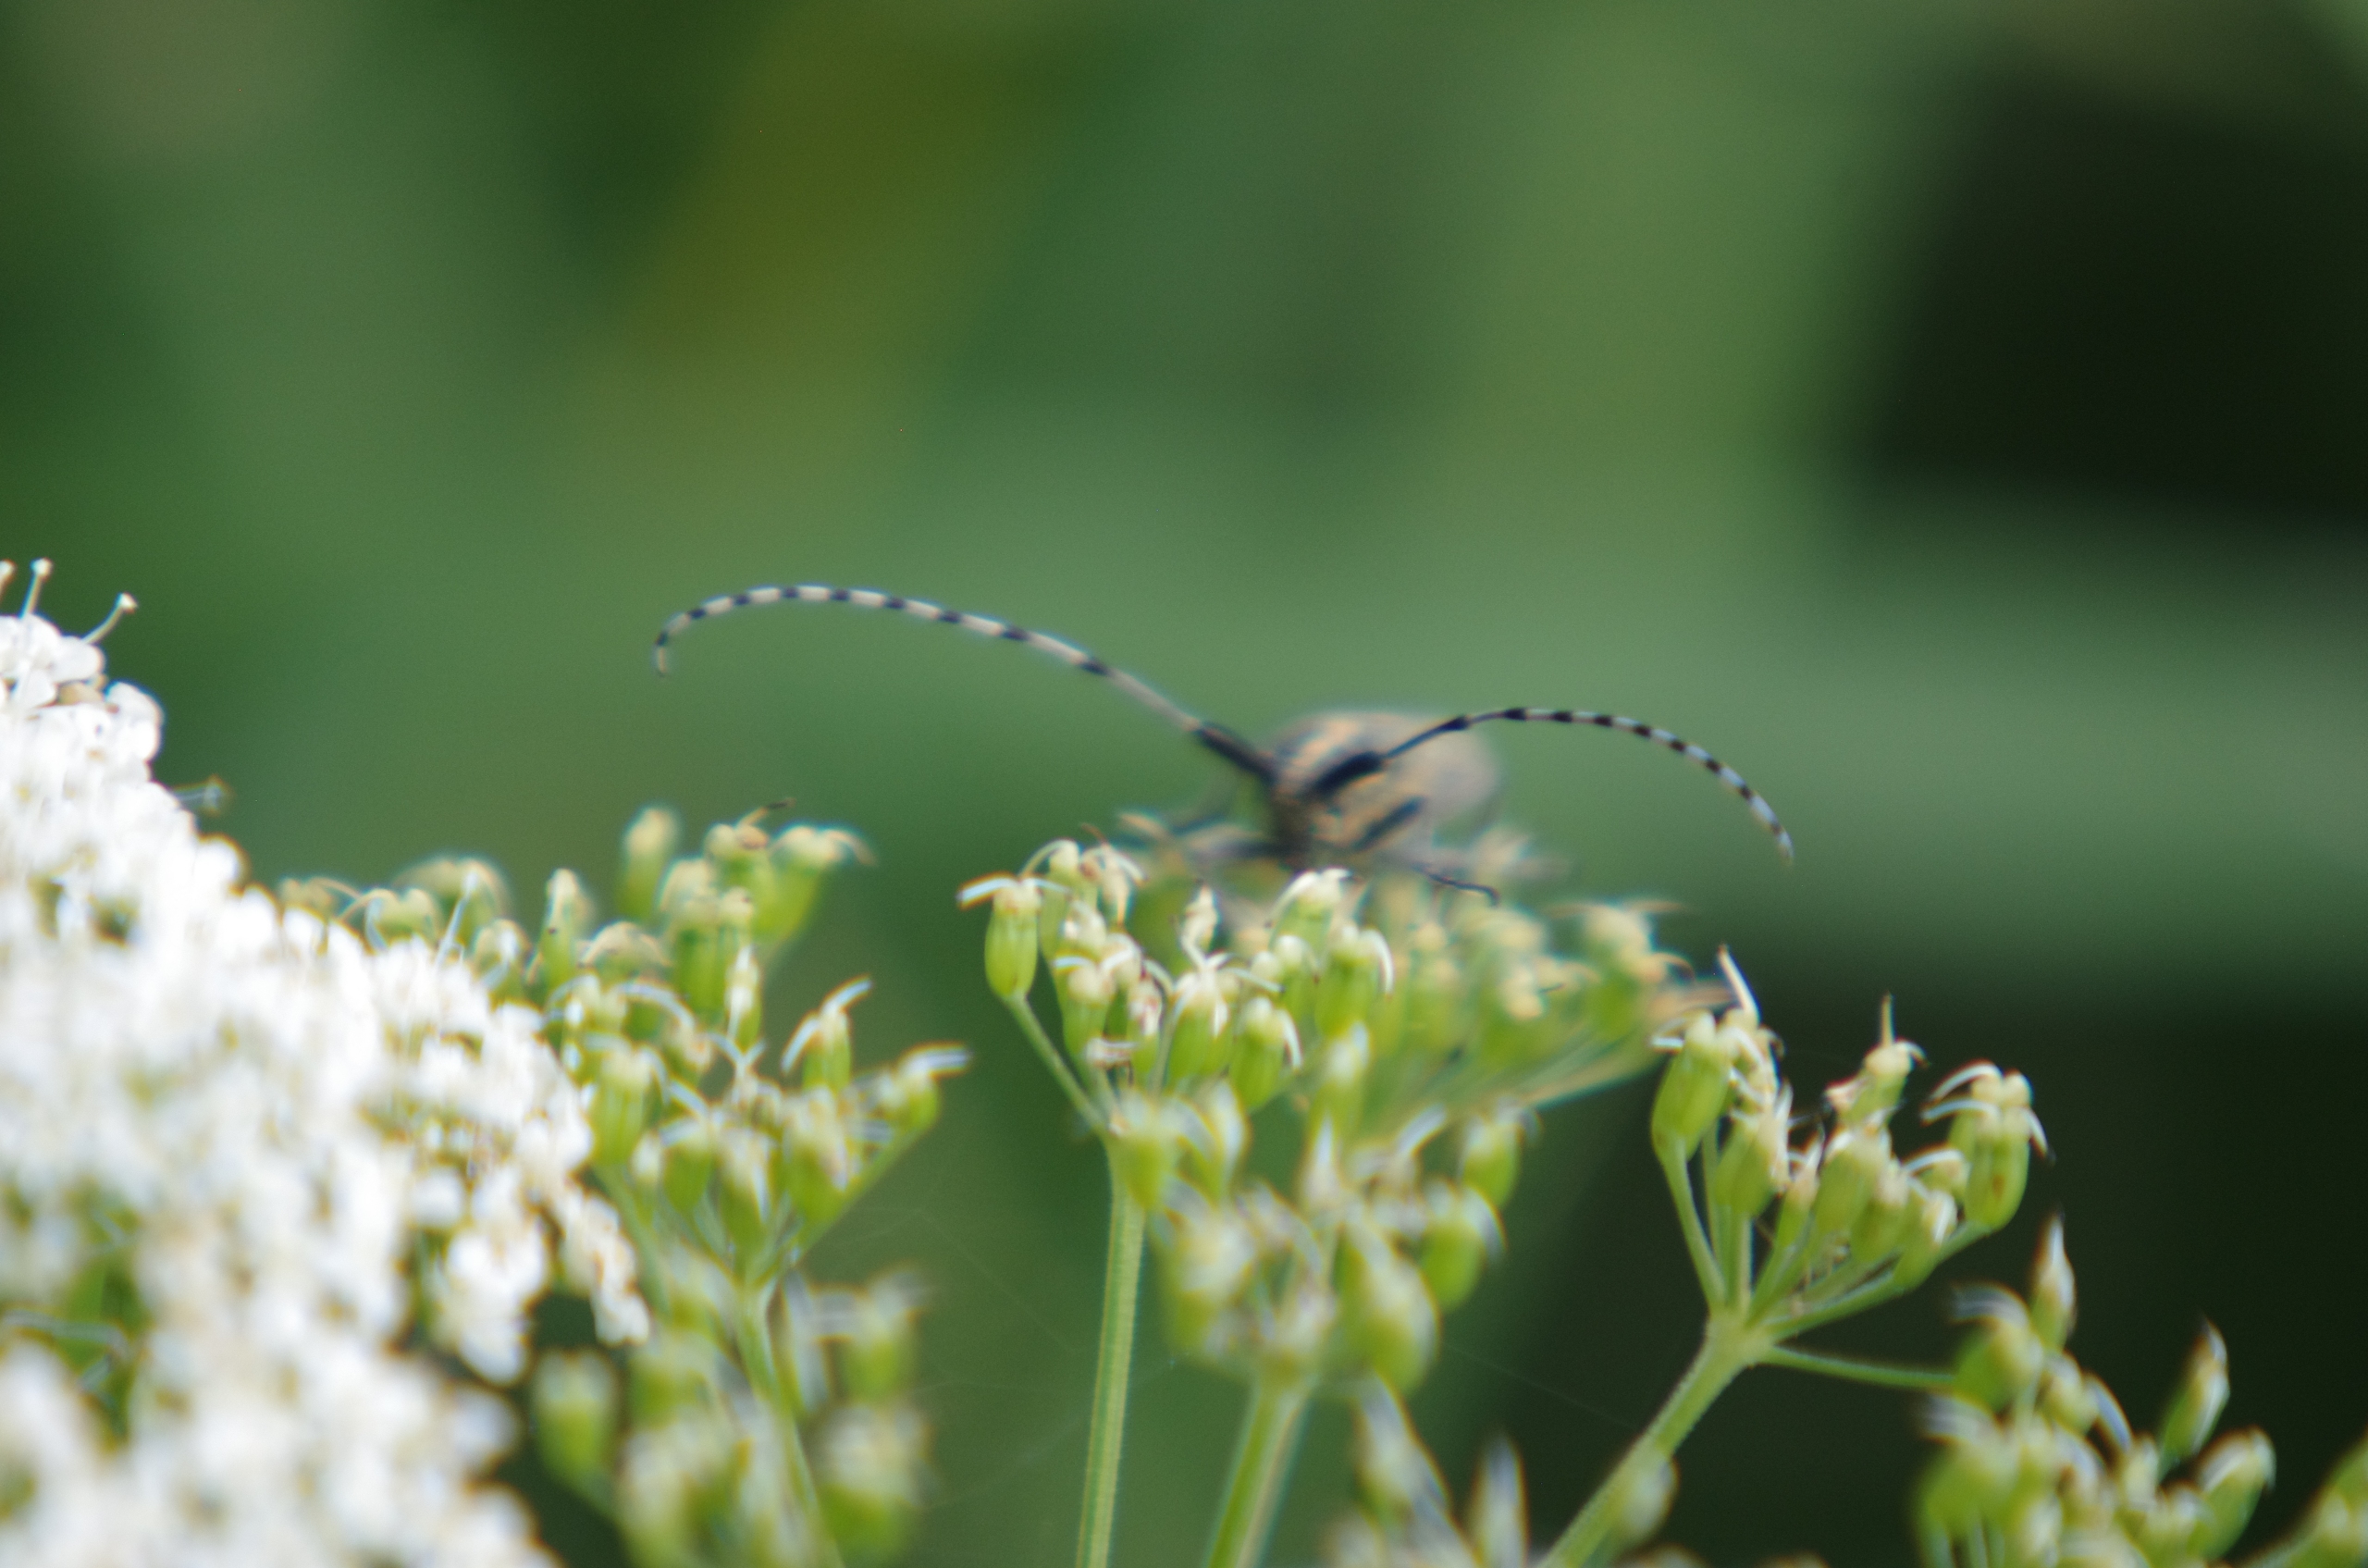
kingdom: Animalia
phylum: Arthropoda
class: Insecta
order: Coleoptera
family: Cerambycidae
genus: Agapanthia
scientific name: Agapanthia villosoviridescens
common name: Tidselbuk
